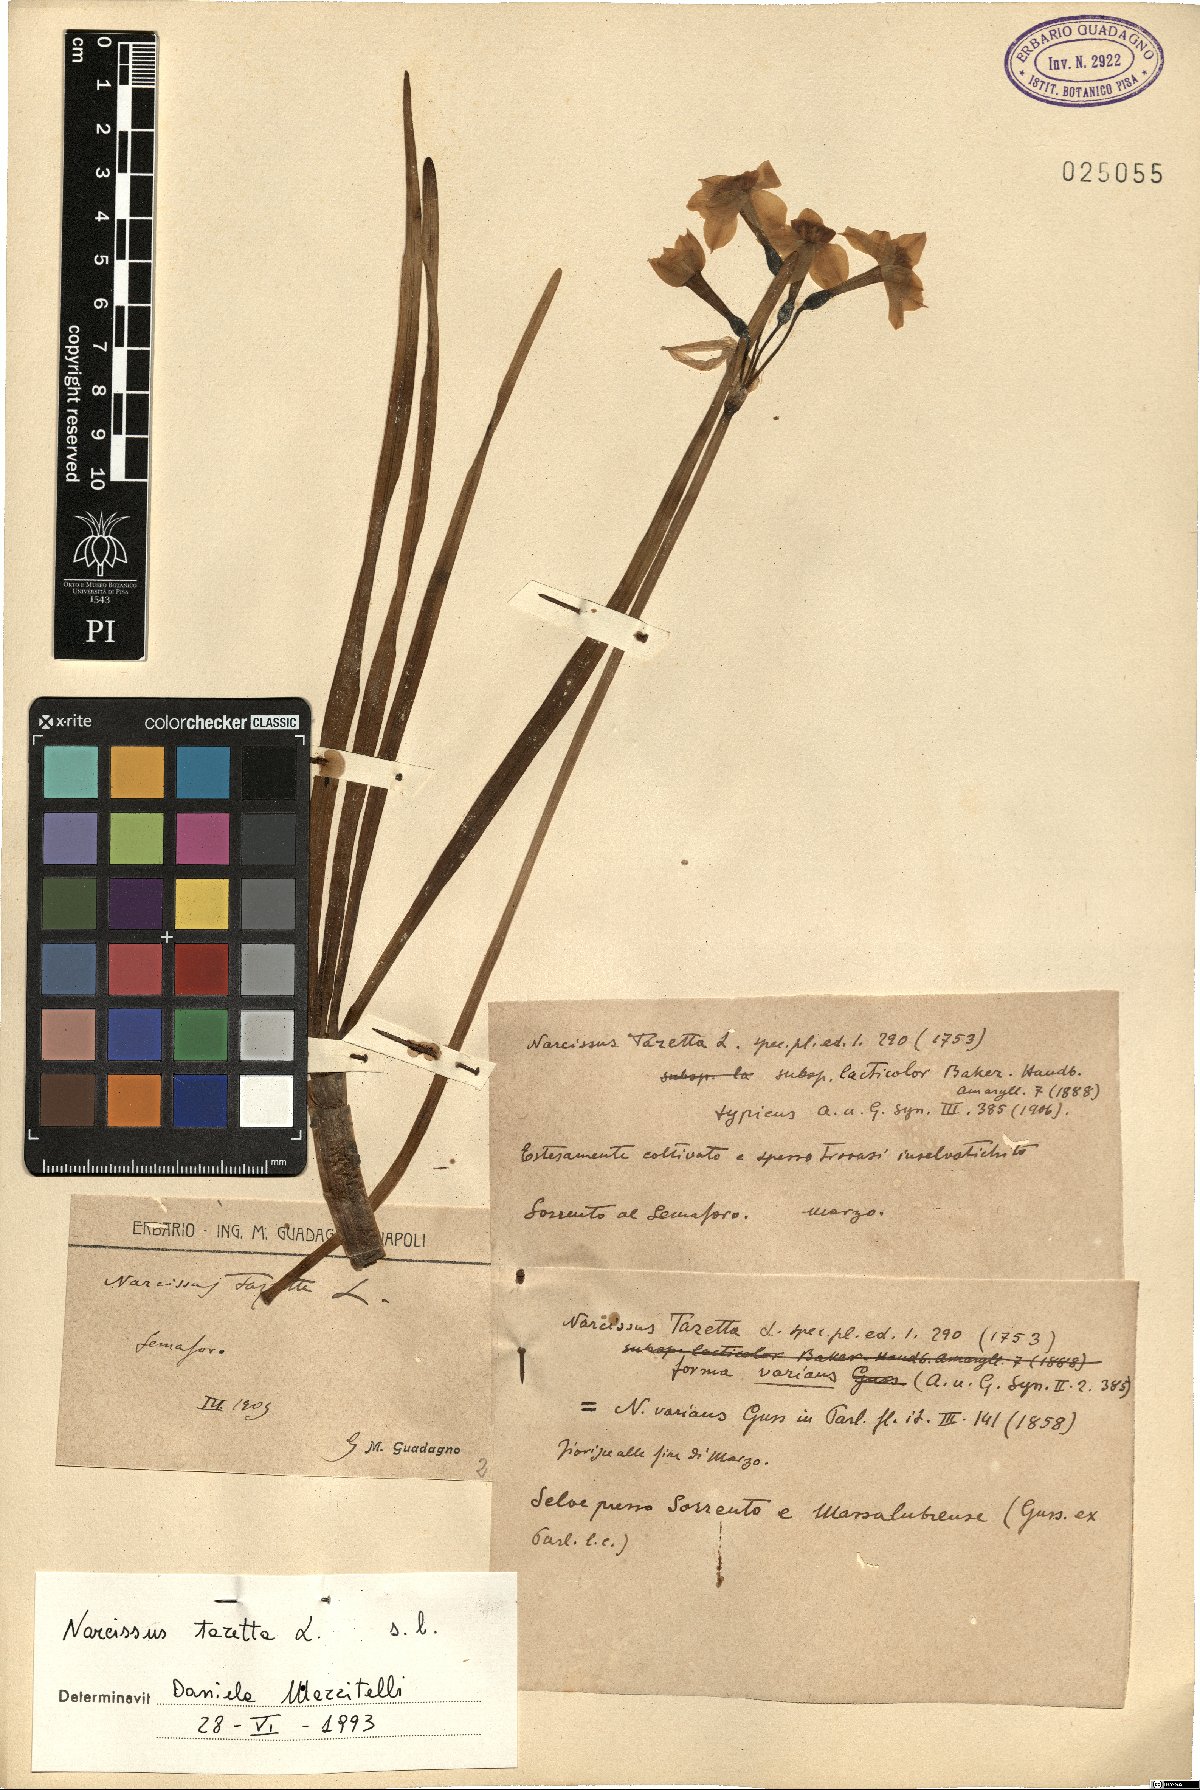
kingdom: Plantae
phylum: Tracheophyta
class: Liliopsida
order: Asparagales
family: Amaryllidaceae
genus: Narcissus
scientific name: Narcissus tazetta
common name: Bunch-flowered daffodil
